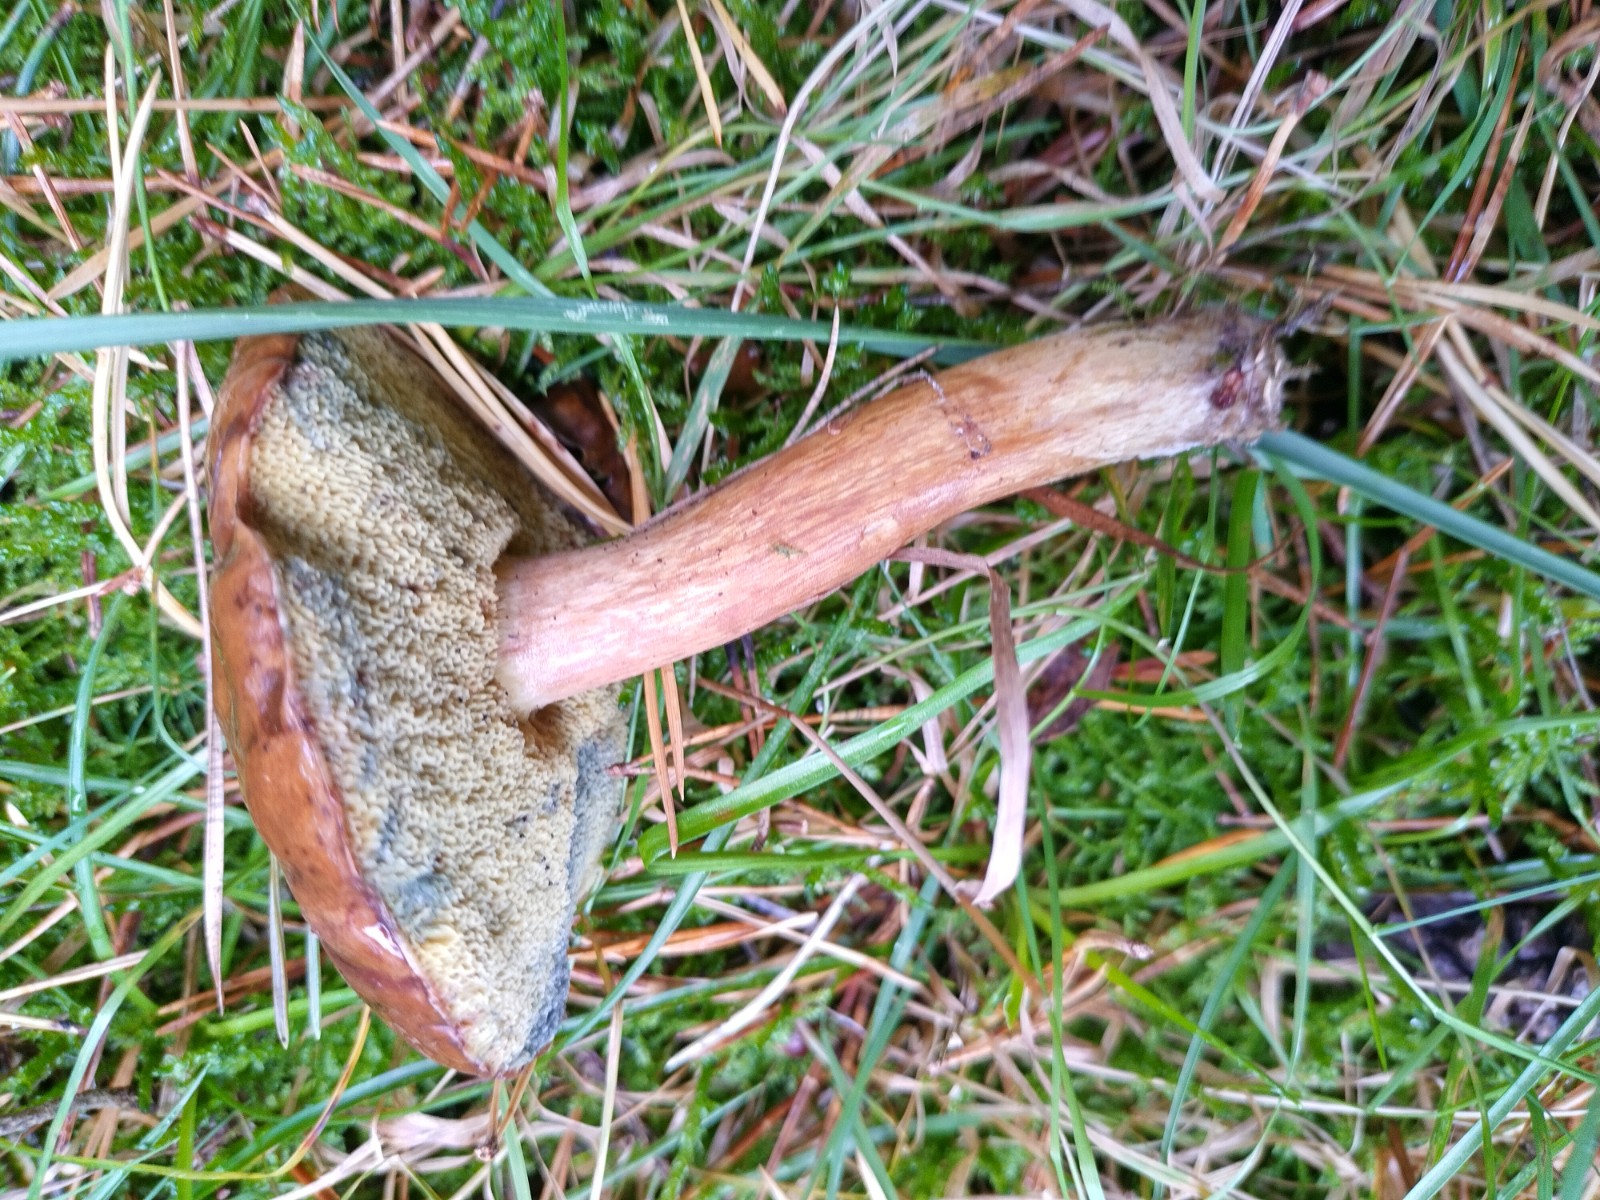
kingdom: Fungi
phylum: Basidiomycota
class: Agaricomycetes
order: Boletales
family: Boletaceae
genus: Imleria
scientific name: Imleria badia
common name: brunstokket rørhat
